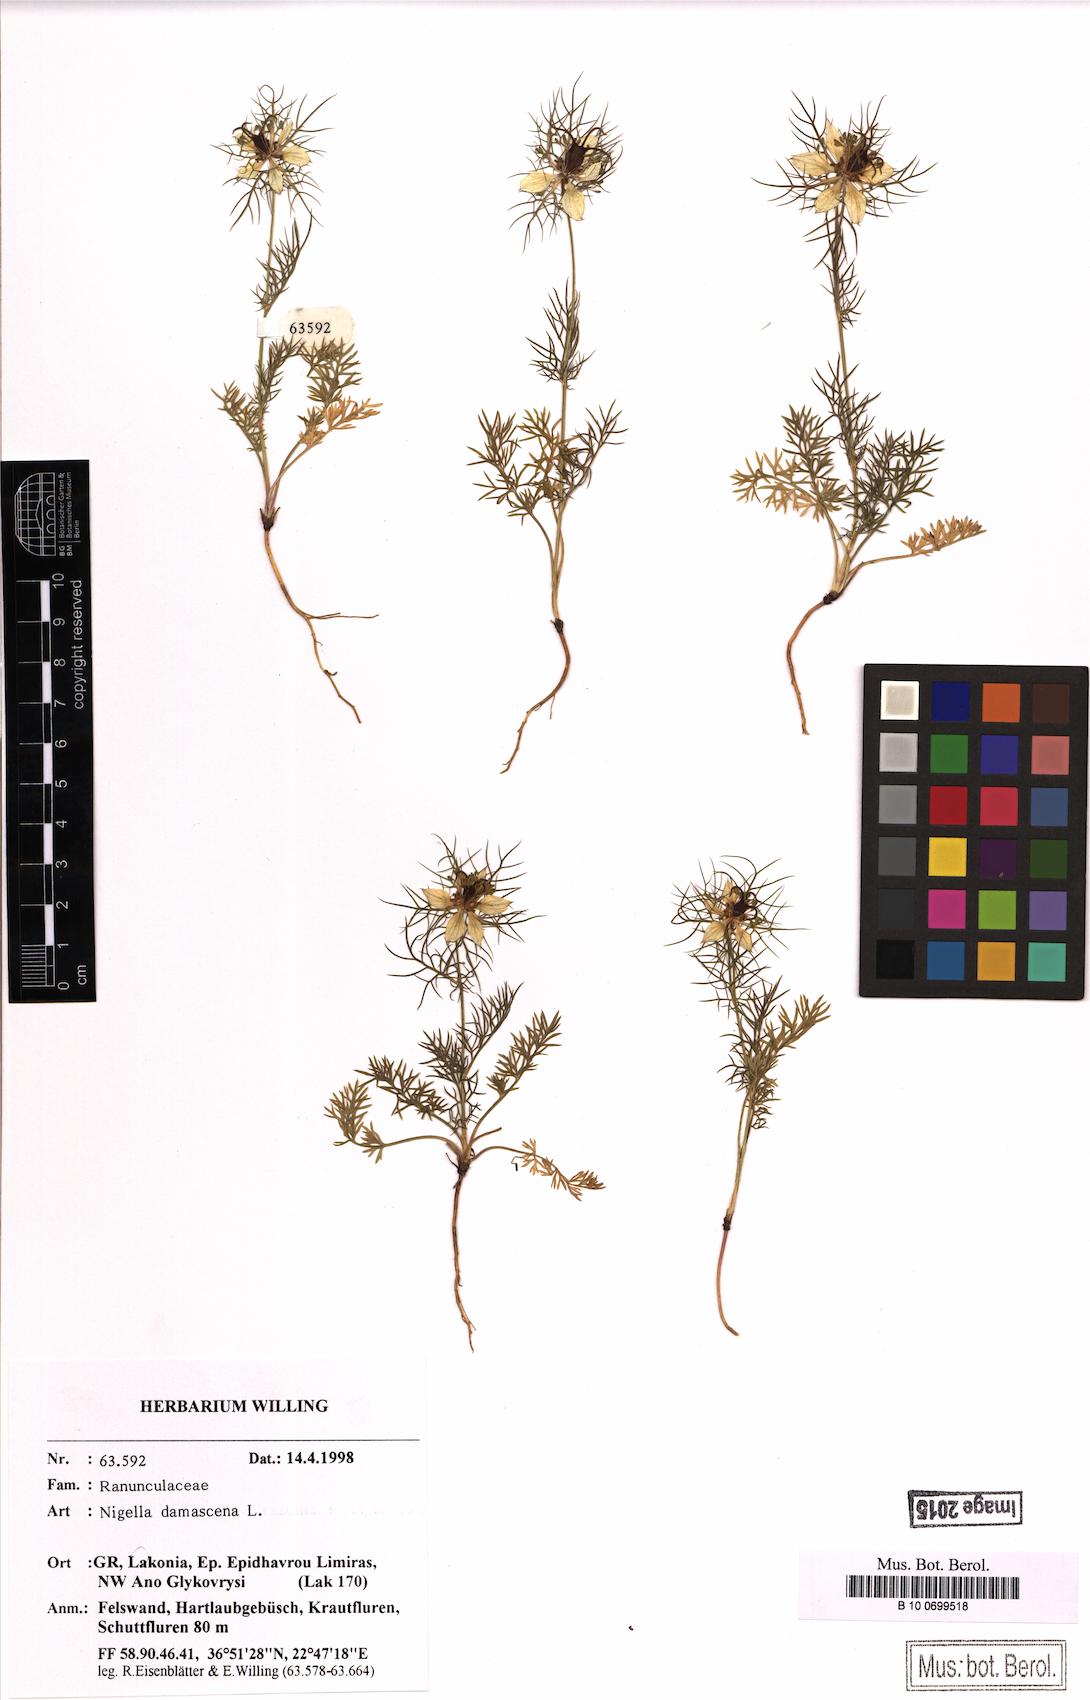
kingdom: Plantae
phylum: Tracheophyta
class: Magnoliopsida
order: Ranunculales
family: Ranunculaceae
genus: Nigella
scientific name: Nigella damascena
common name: Love-in-a-mist
